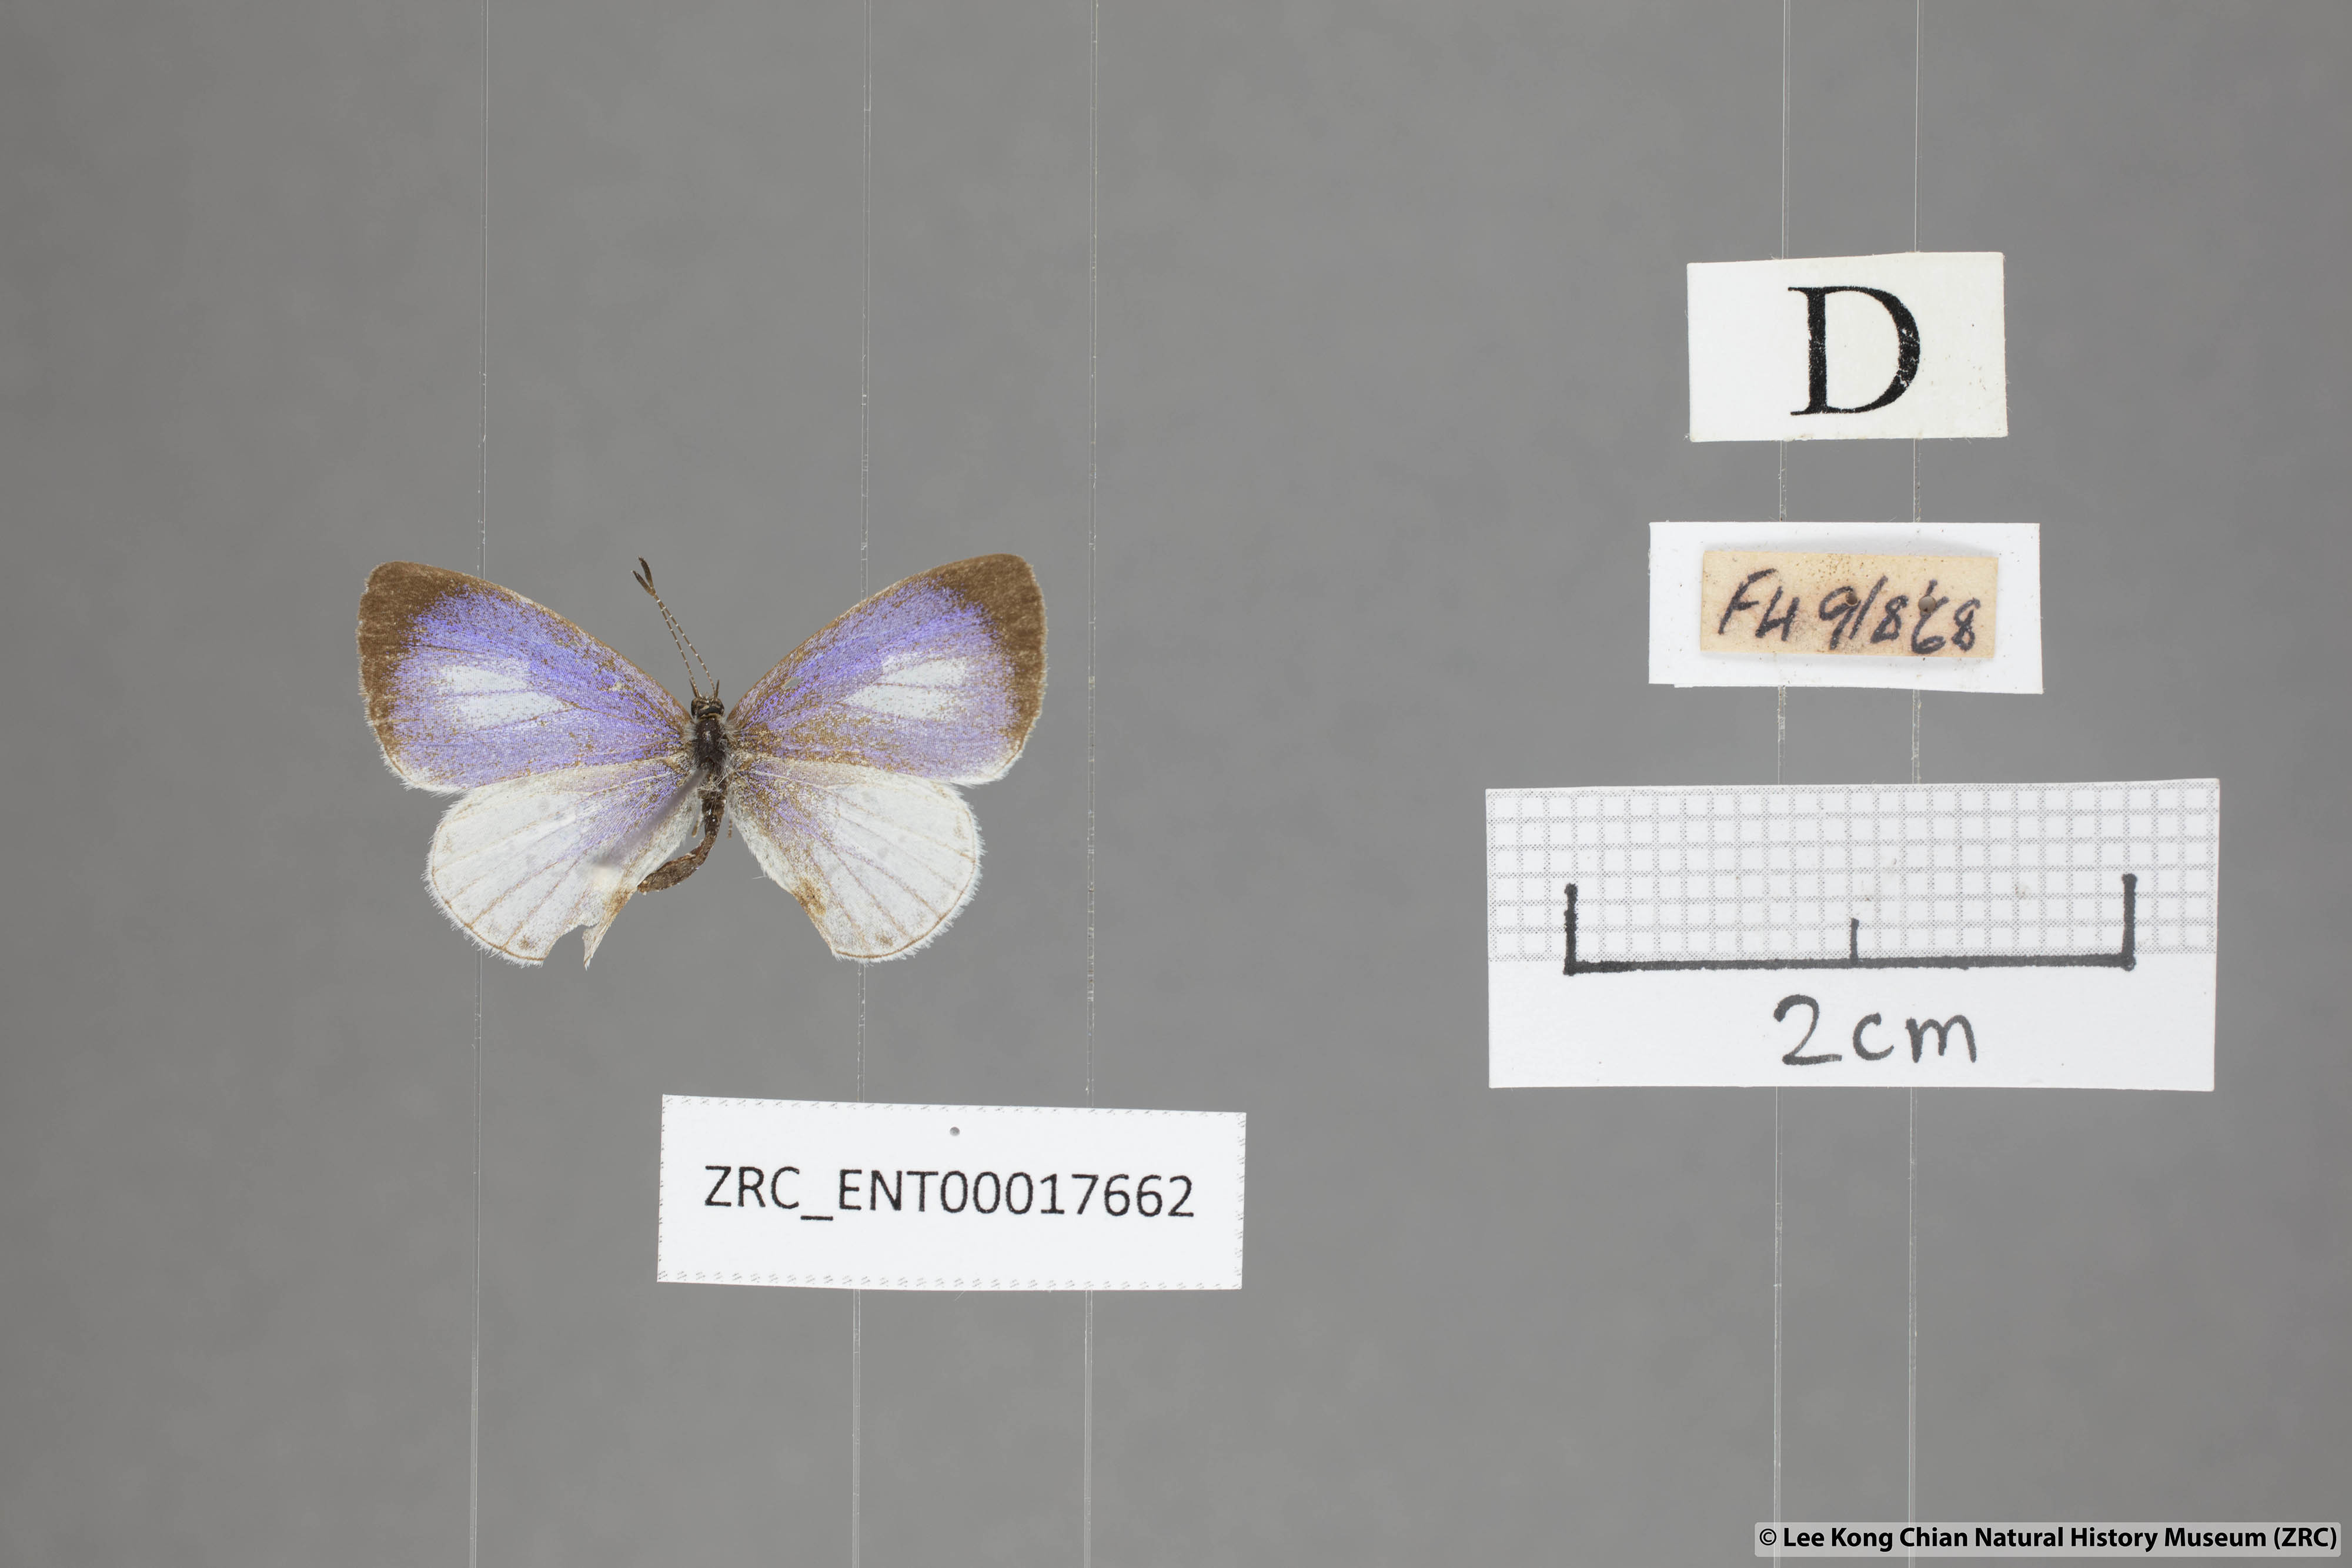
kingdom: Animalia
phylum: Arthropoda
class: Insecta
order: Lepidoptera
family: Lycaenidae
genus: Udara
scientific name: Udara albocaerulea
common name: Albocerulean
